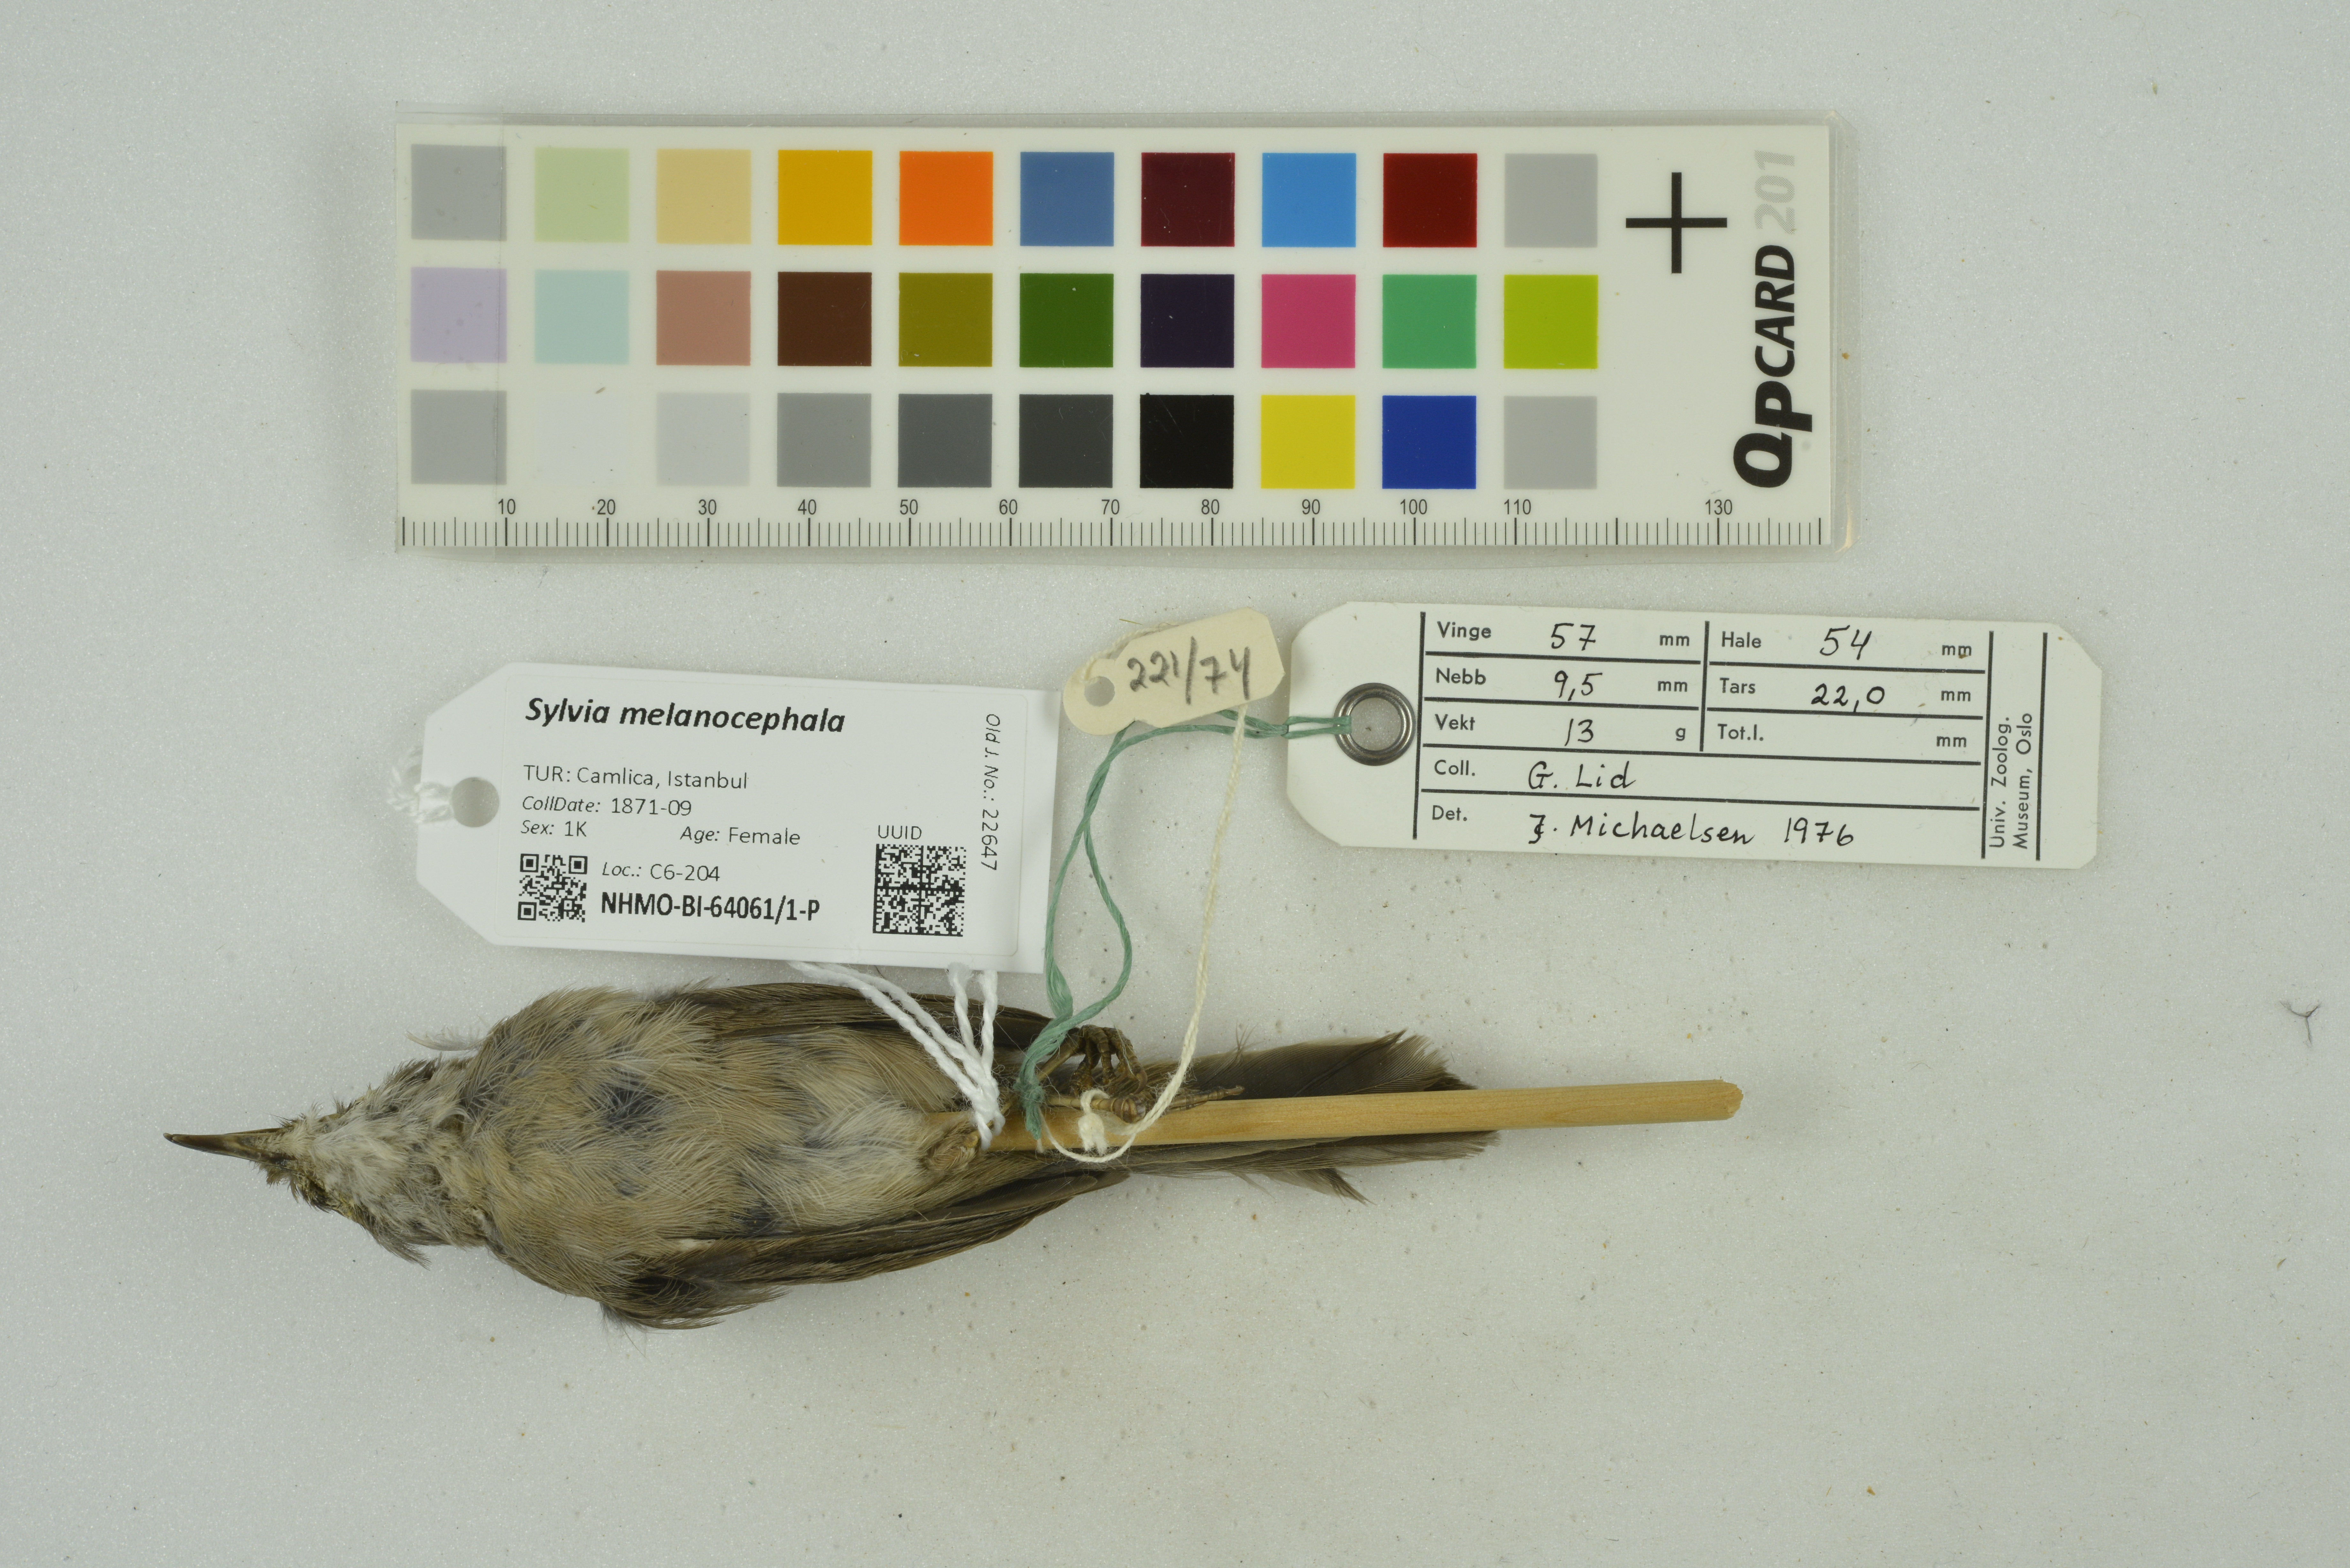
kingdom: Animalia
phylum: Chordata
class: Aves
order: Passeriformes
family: Sylviidae
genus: Curruca
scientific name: Curruca melanocephala
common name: Sardinian warbler
